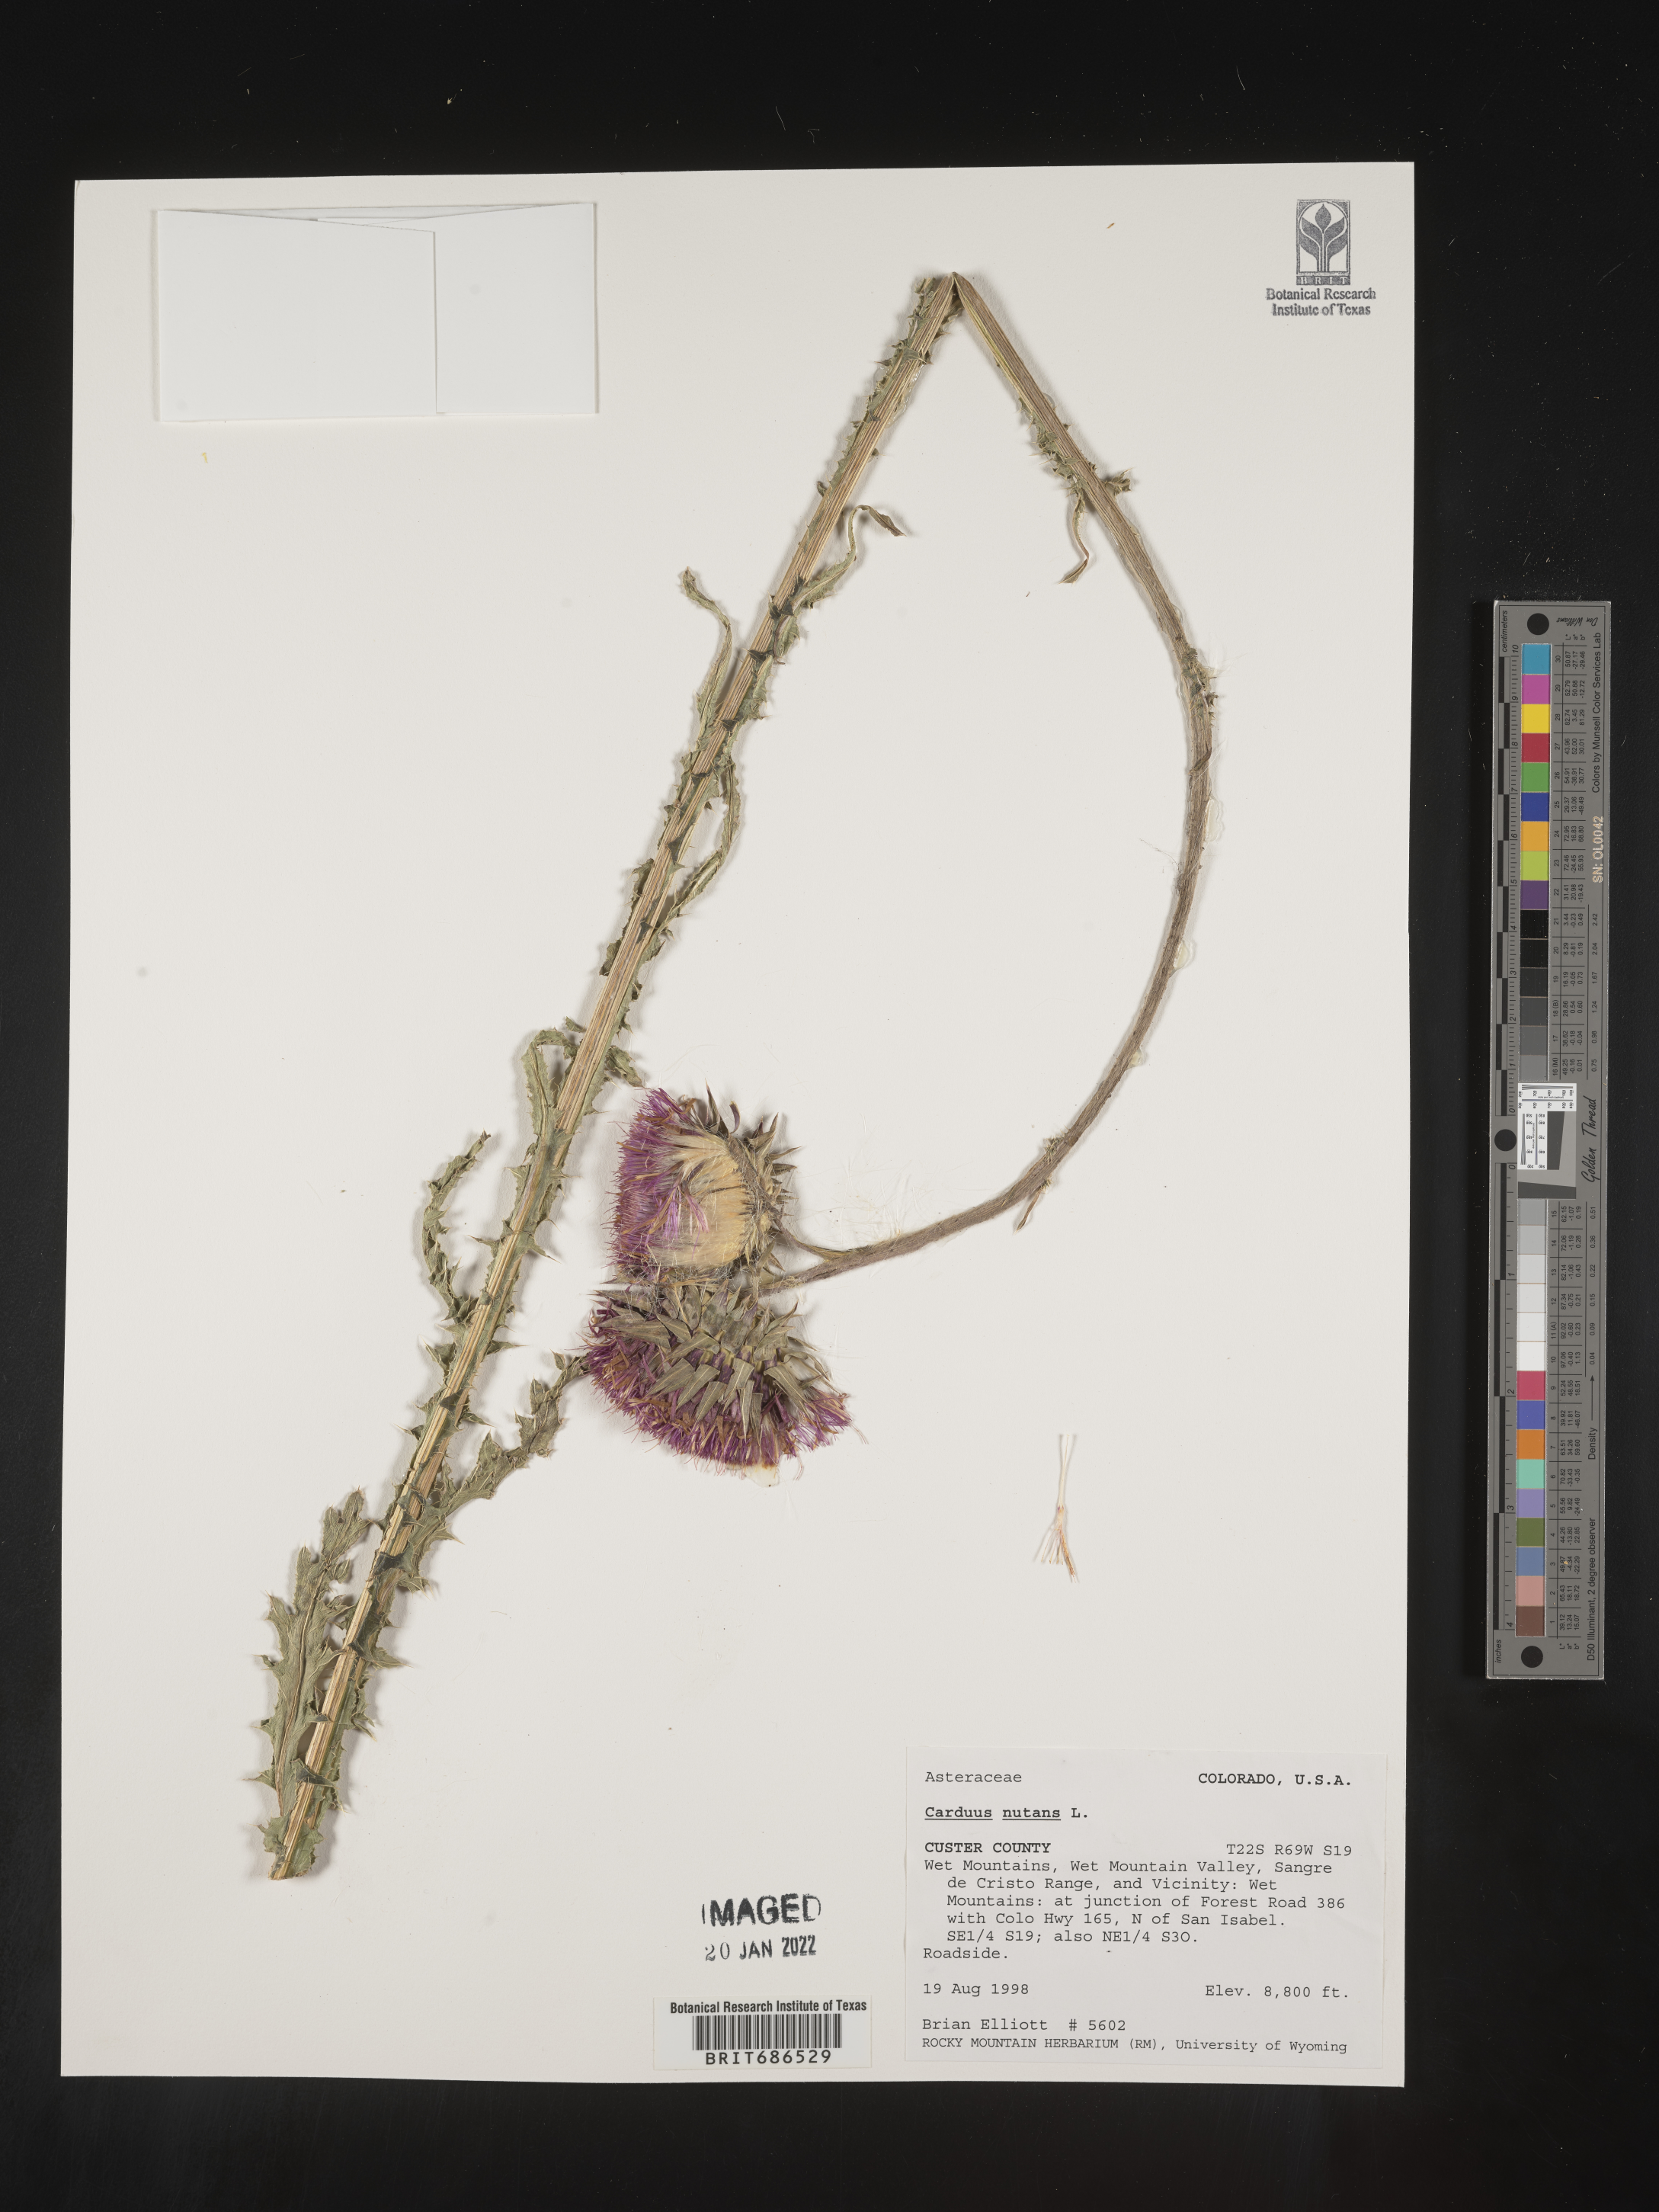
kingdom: Plantae
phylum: Tracheophyta
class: Magnoliopsida
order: Asterales
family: Asteraceae
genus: Carduus
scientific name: Carduus nutans
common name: Musk thistle
